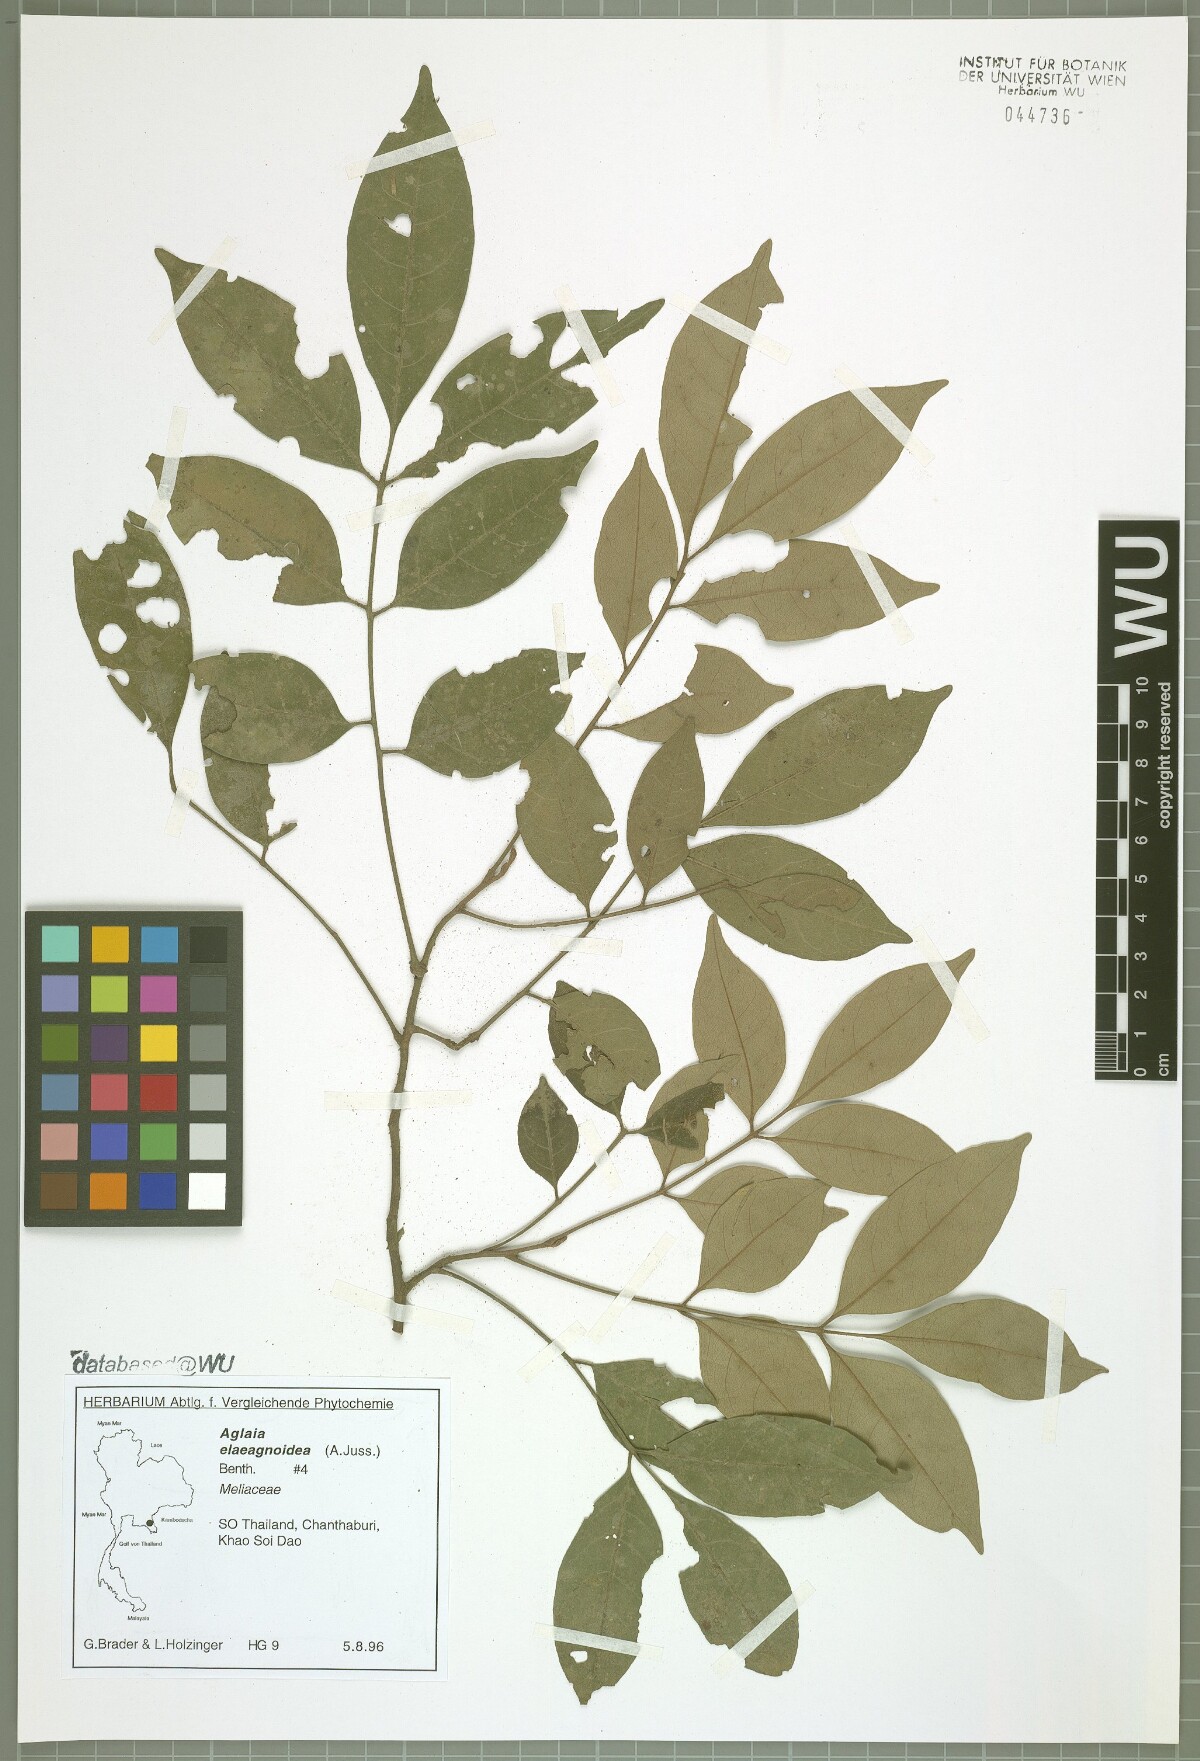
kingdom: Plantae
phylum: Tracheophyta
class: Magnoliopsida
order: Sapindales
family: Meliaceae
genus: Aglaia
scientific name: Aglaia elaeagnoidea
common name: Droopyleaf
